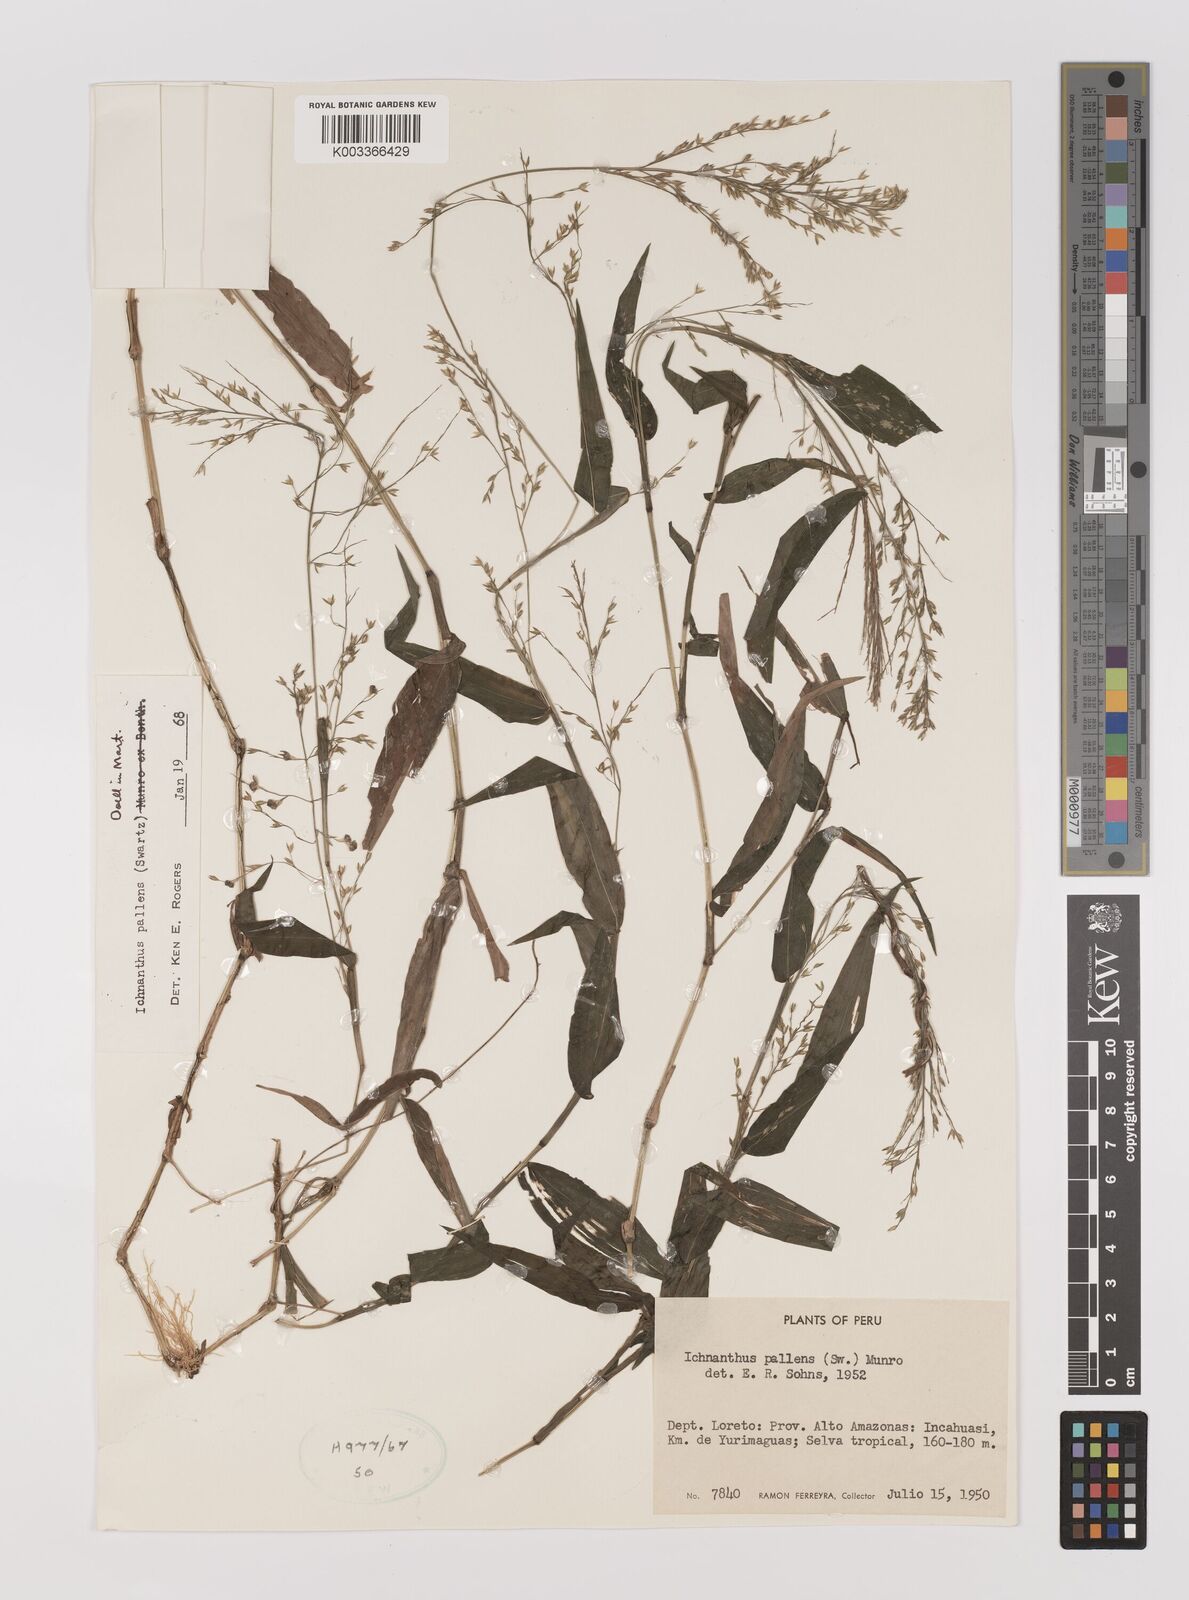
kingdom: Plantae
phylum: Tracheophyta
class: Liliopsida
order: Poales
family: Poaceae
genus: Ichnanthus
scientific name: Ichnanthus pallens
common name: Water grass
